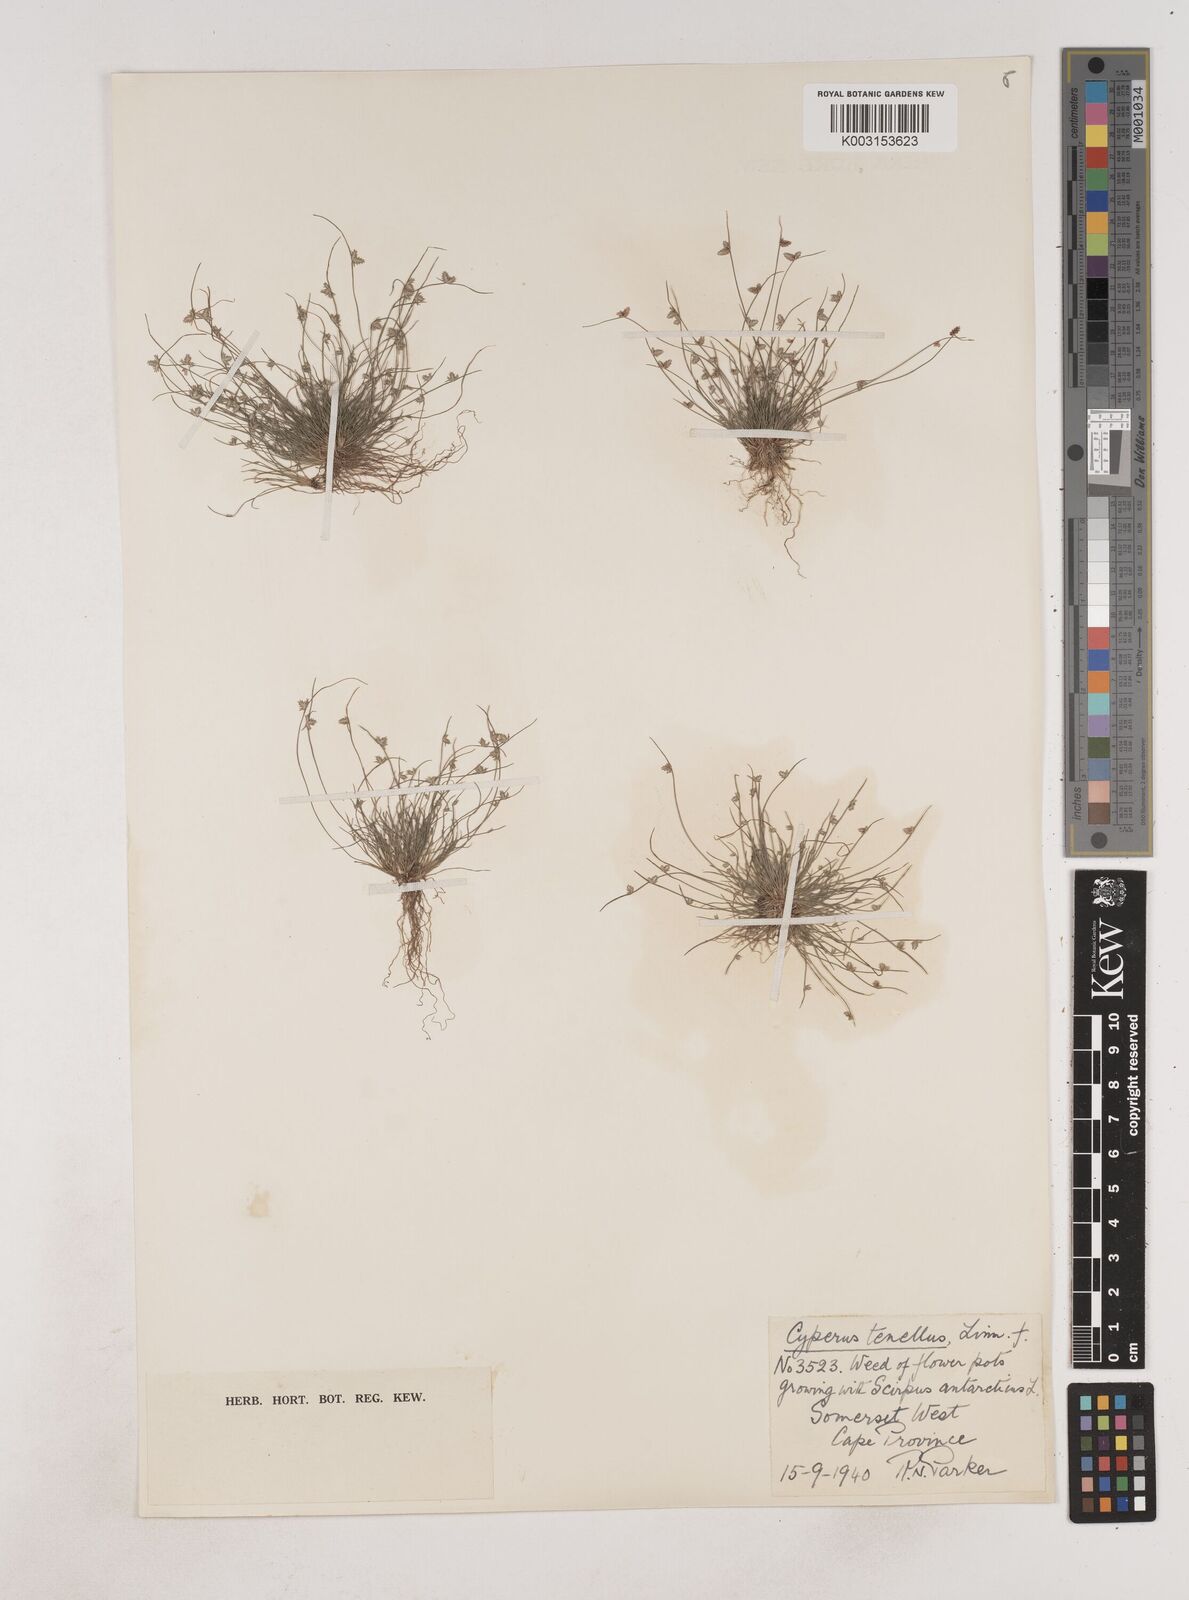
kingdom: Plantae
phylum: Tracheophyta
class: Liliopsida
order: Poales
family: Cyperaceae
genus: Isolepis
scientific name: Isolepis levynsiana
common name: Sedge
